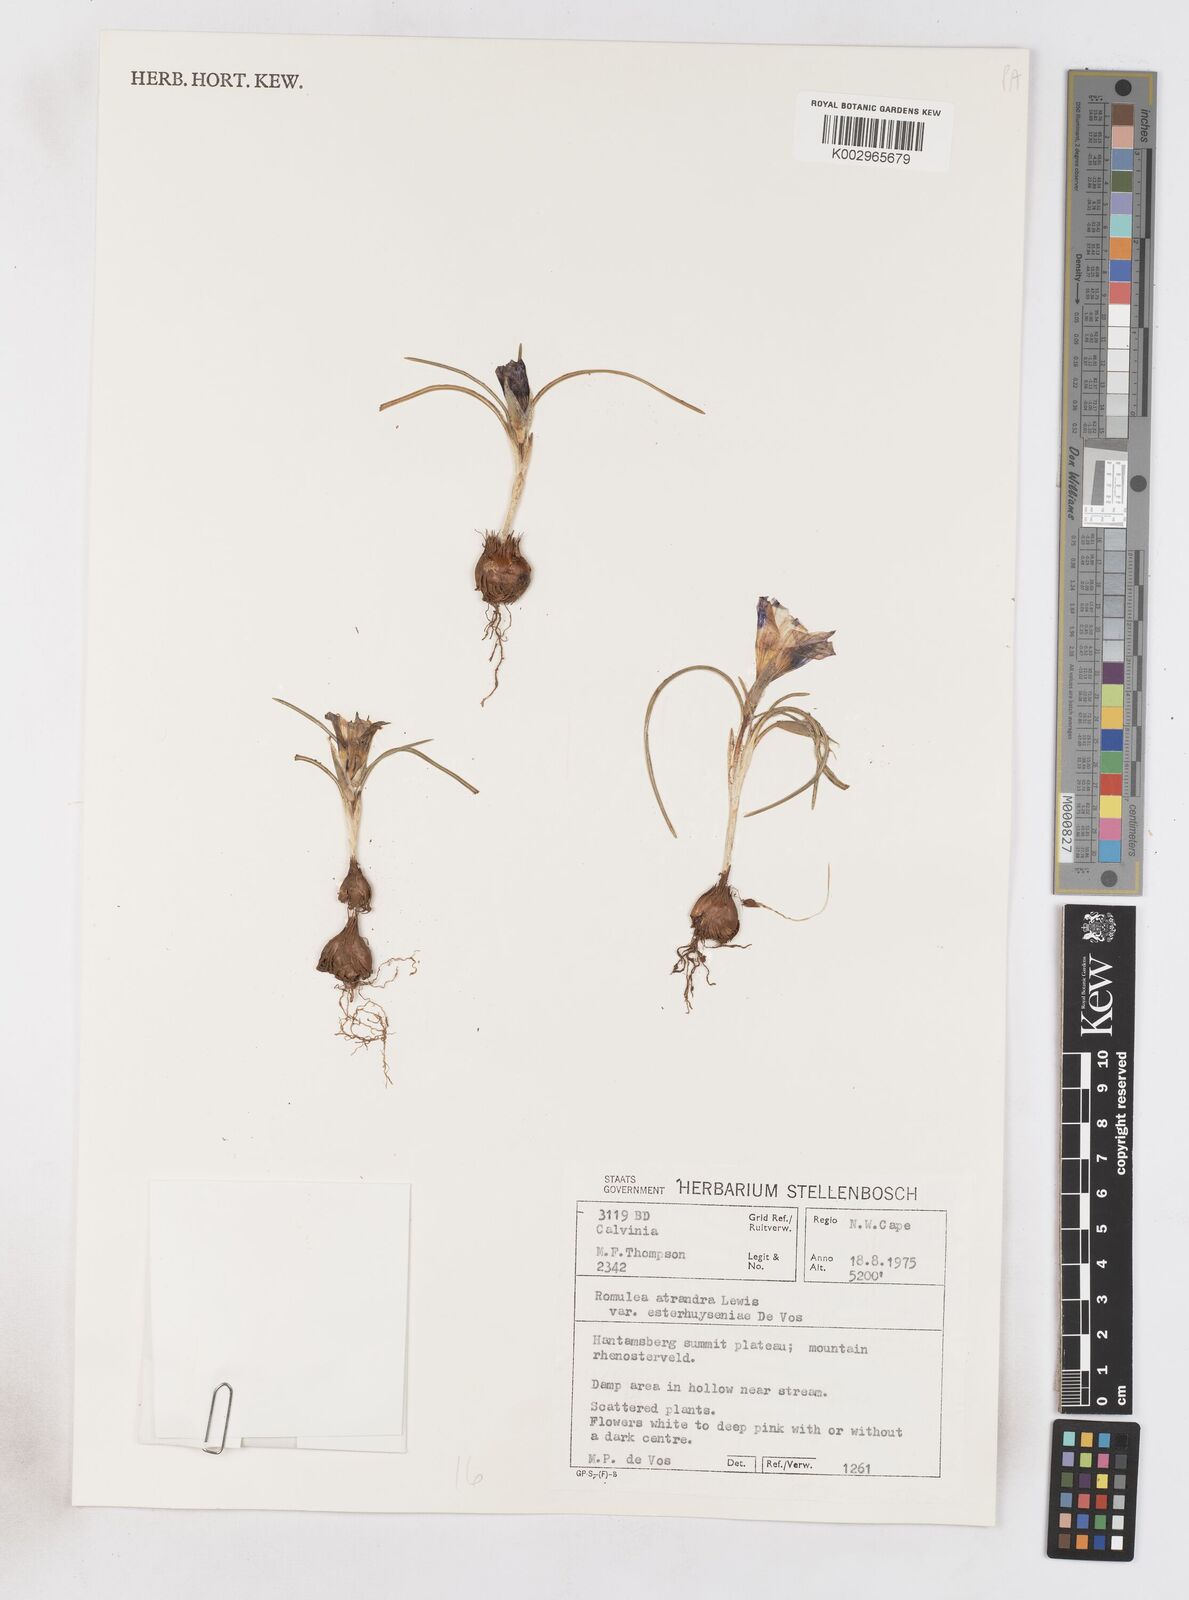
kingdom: Plantae
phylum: Tracheophyta
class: Liliopsida
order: Asparagales
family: Iridaceae
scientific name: Iridaceae
